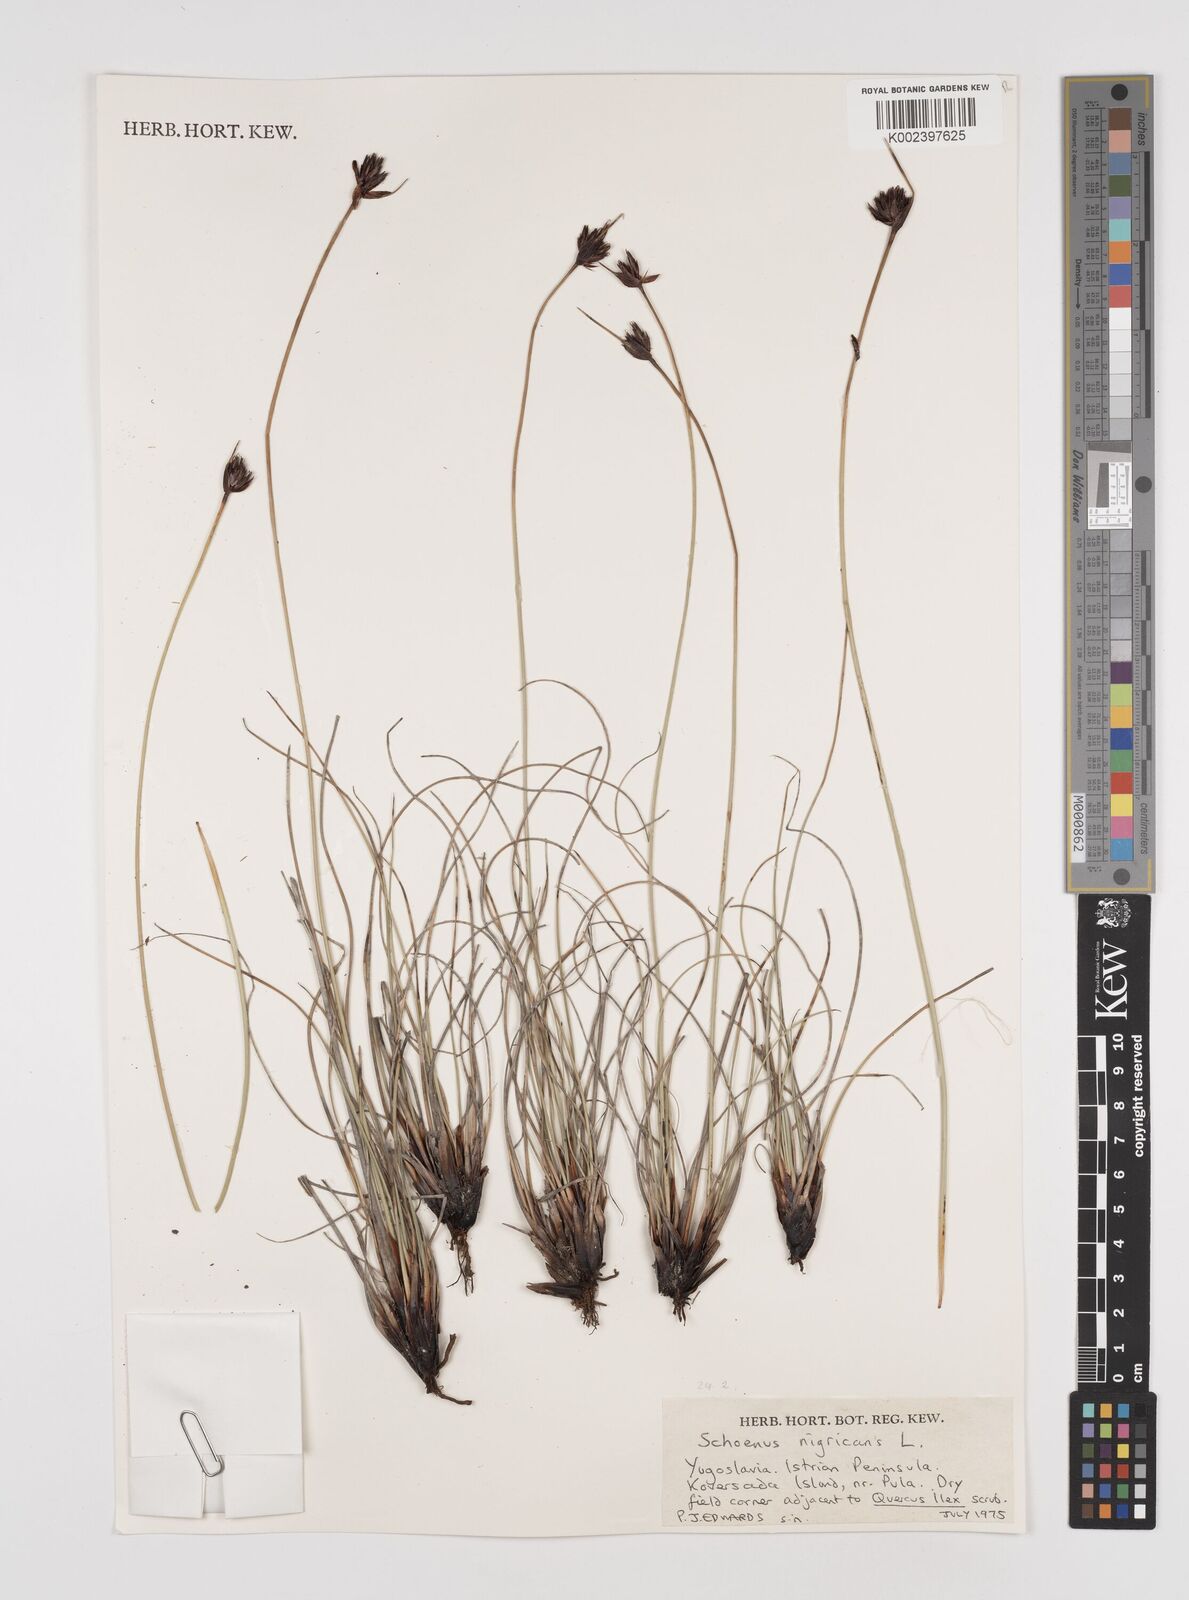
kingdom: Plantae
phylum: Tracheophyta
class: Liliopsida
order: Poales
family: Cyperaceae
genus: Schoenus
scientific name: Schoenus nigricans
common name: Black bog-rush
